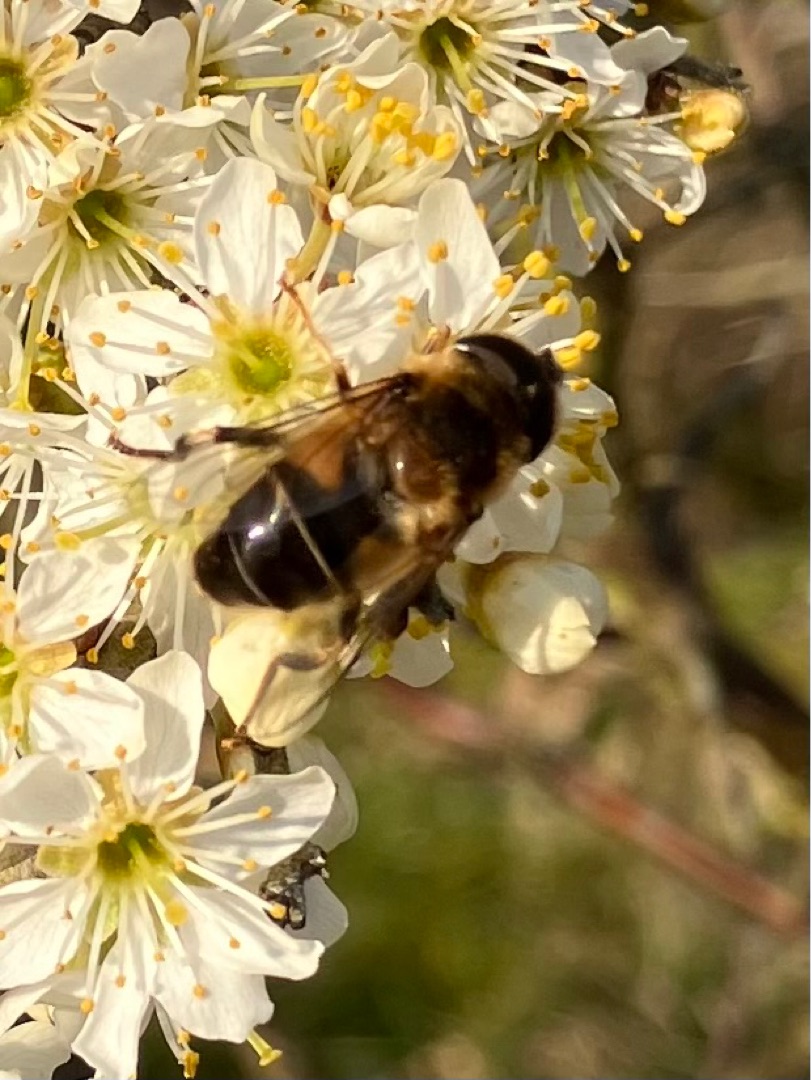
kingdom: Animalia
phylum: Arthropoda
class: Insecta
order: Diptera
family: Syrphidae
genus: Eristalis
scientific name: Eristalis pertinax
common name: Gulfodet dyndflue
